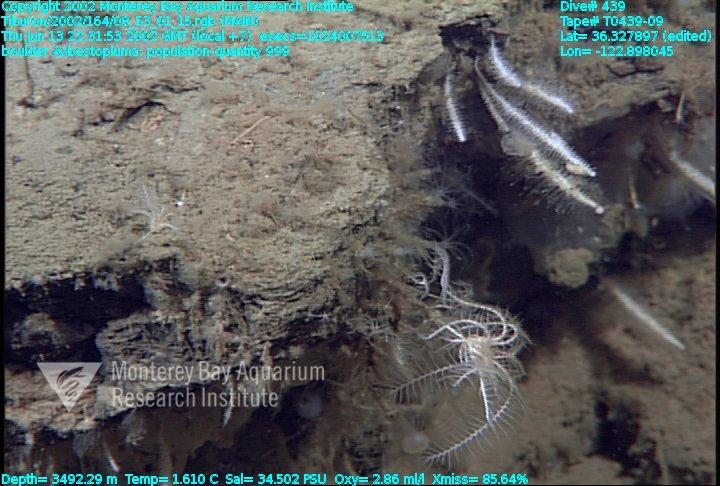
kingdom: Animalia
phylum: Porifera
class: Demospongiae
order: Poecilosclerida
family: Cladorhizidae
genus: Asbestopluma
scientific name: Asbestopluma
